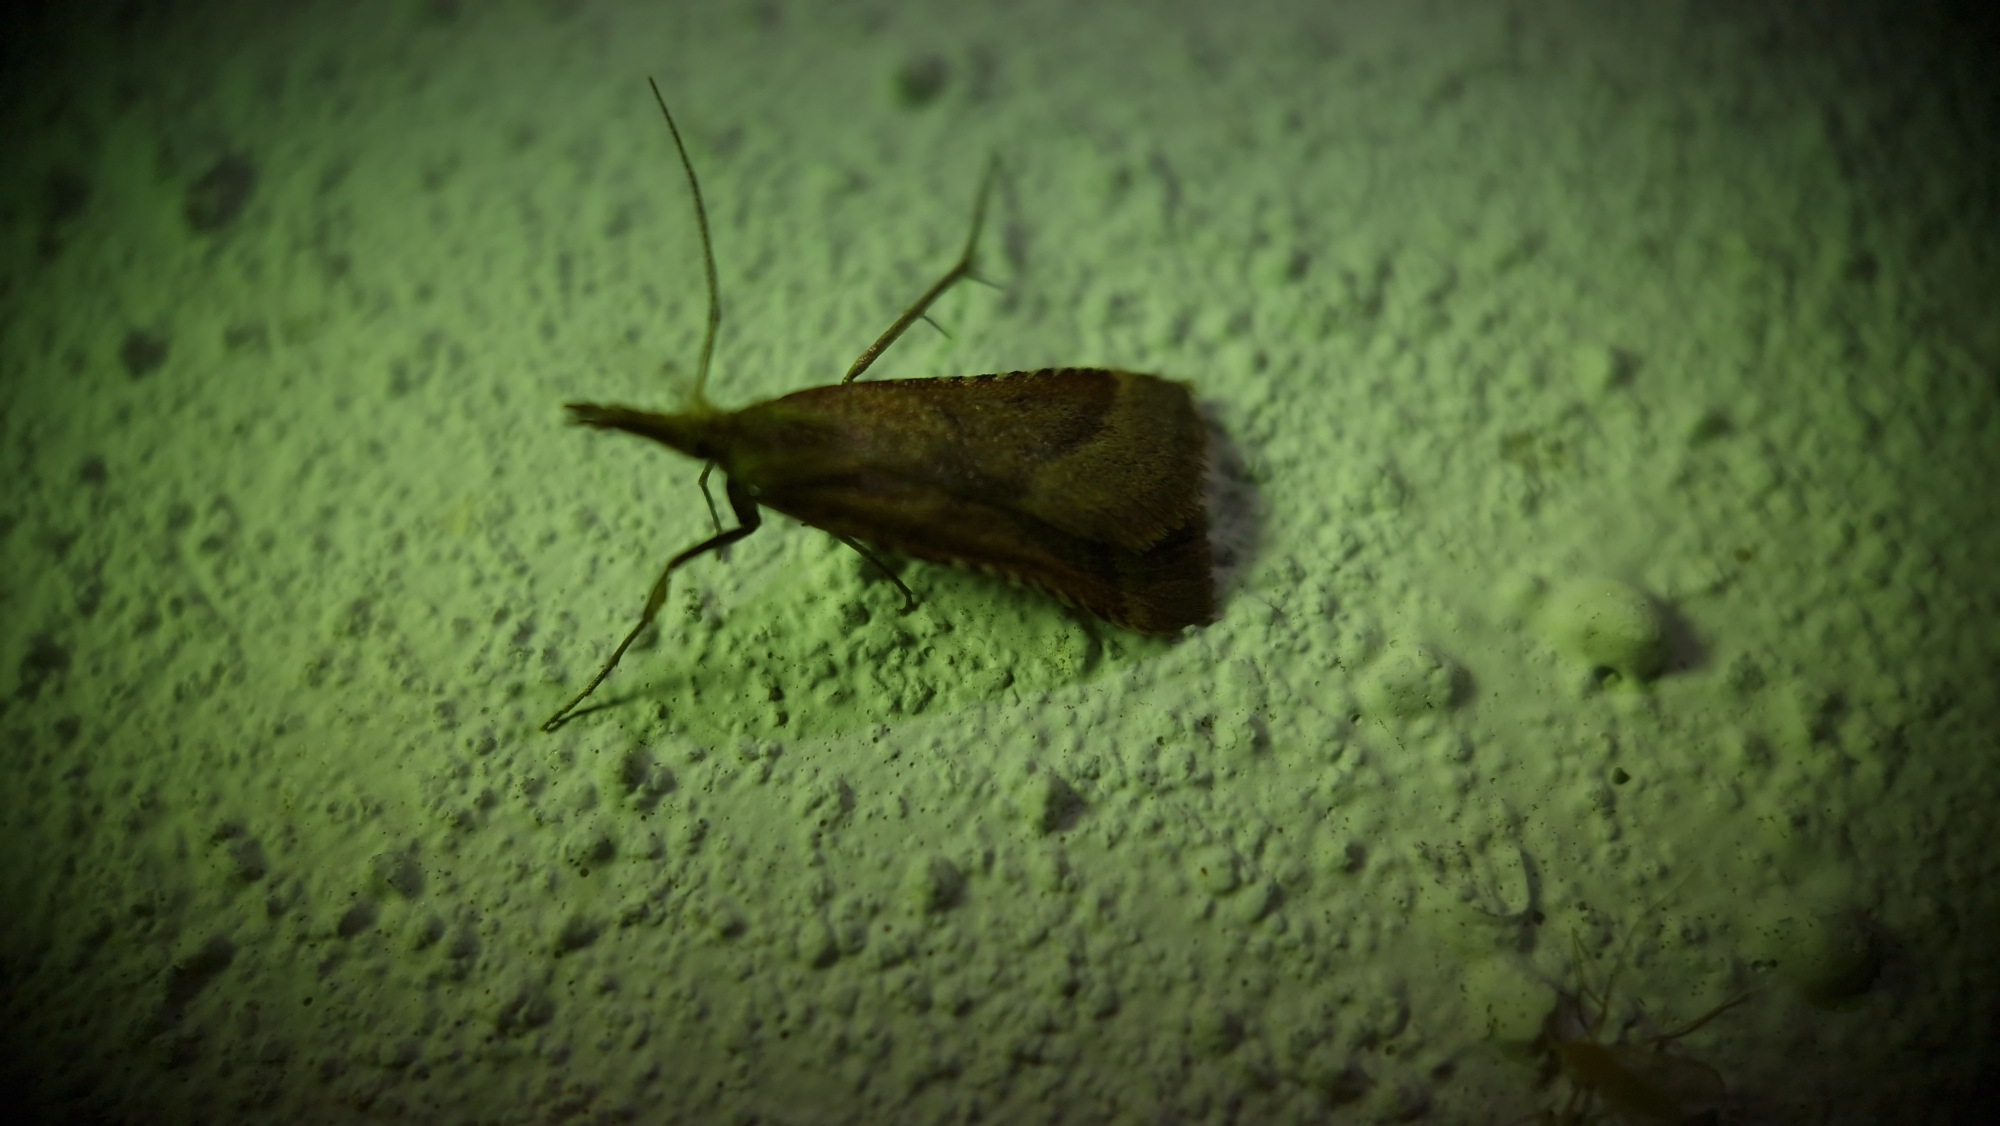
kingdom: Animalia
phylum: Arthropoda
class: Insecta
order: Lepidoptera
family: Pyralidae
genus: Synaphe
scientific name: Synaphe punctalis
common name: Spidsvinget moshalvmøl
